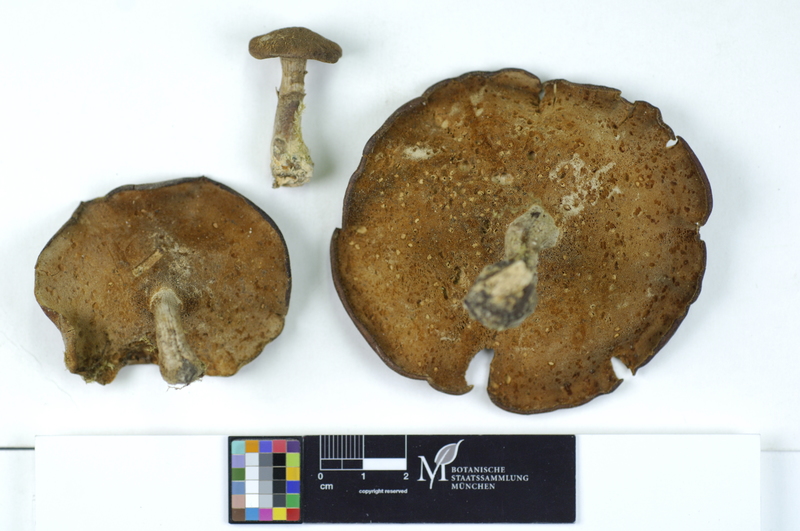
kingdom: Fungi
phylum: Basidiomycota
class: Agaricomycetes
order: Polyporales
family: Polyporaceae
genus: Polyporus
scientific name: Polyporus lepideus
